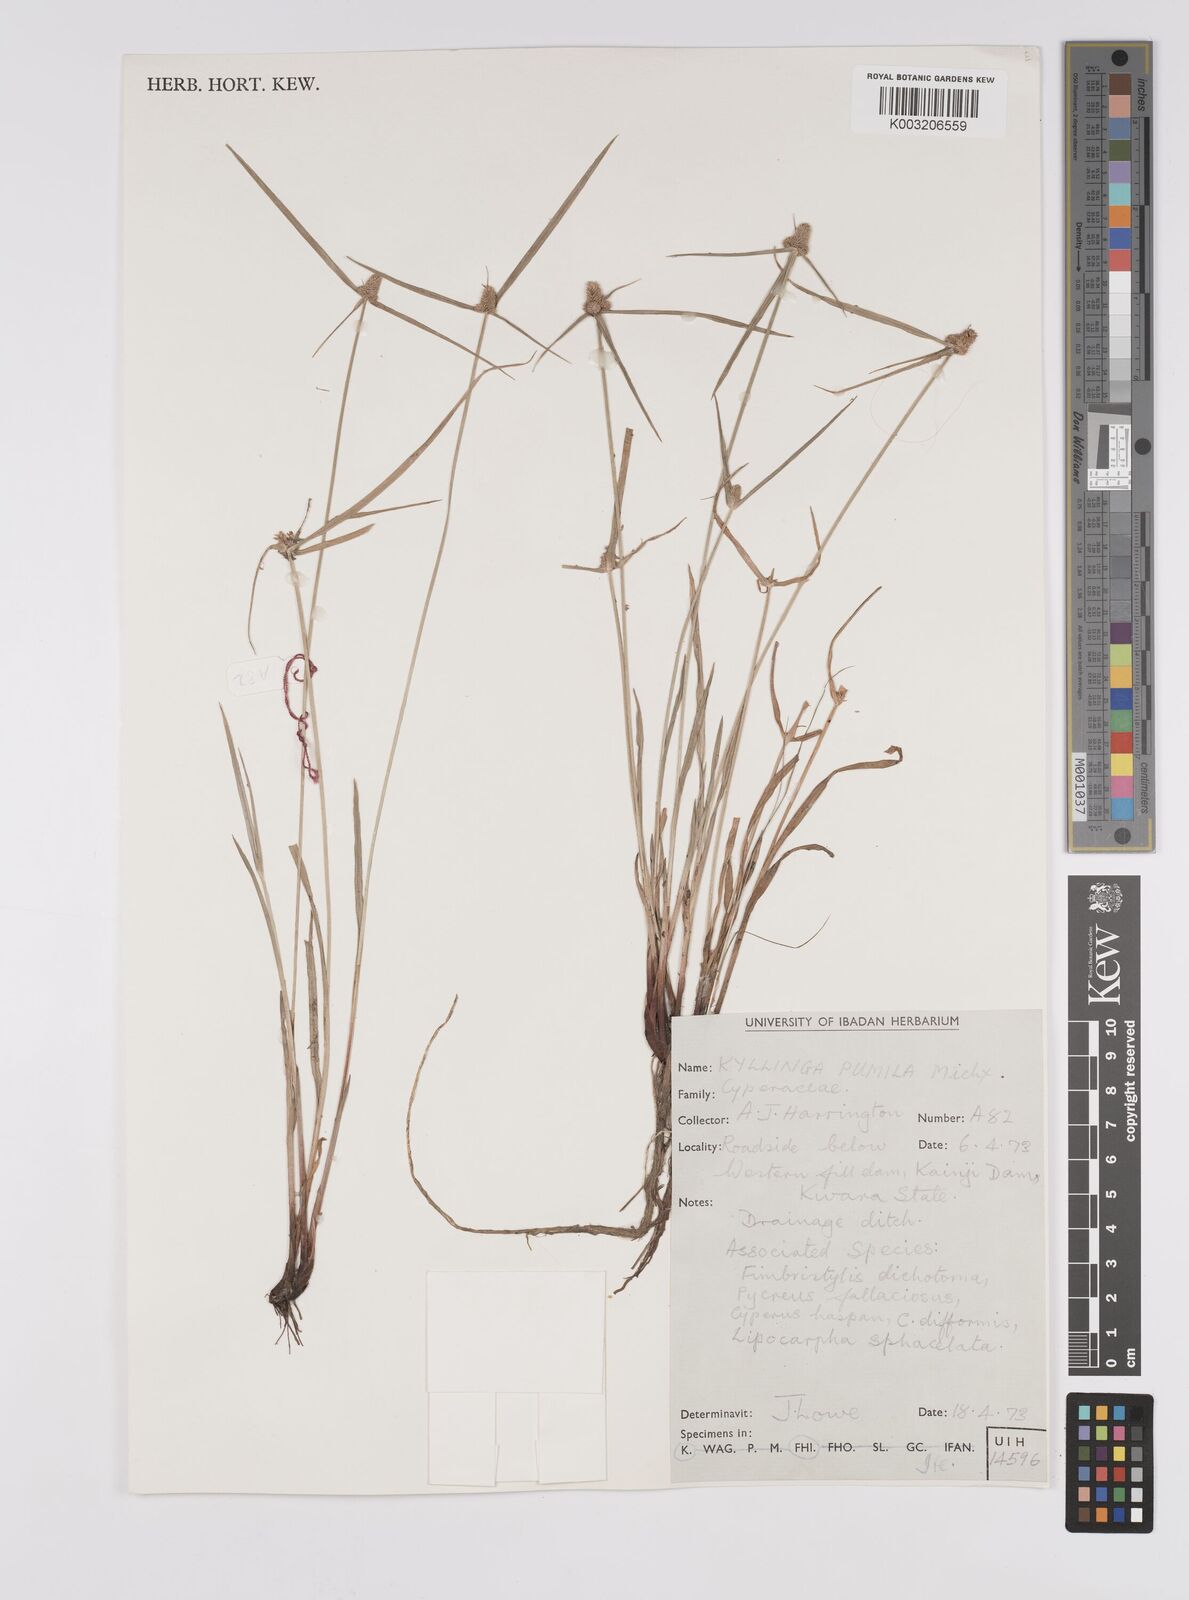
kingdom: Plantae
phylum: Tracheophyta
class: Liliopsida
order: Poales
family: Cyperaceae
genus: Cyperus
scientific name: Cyperus
